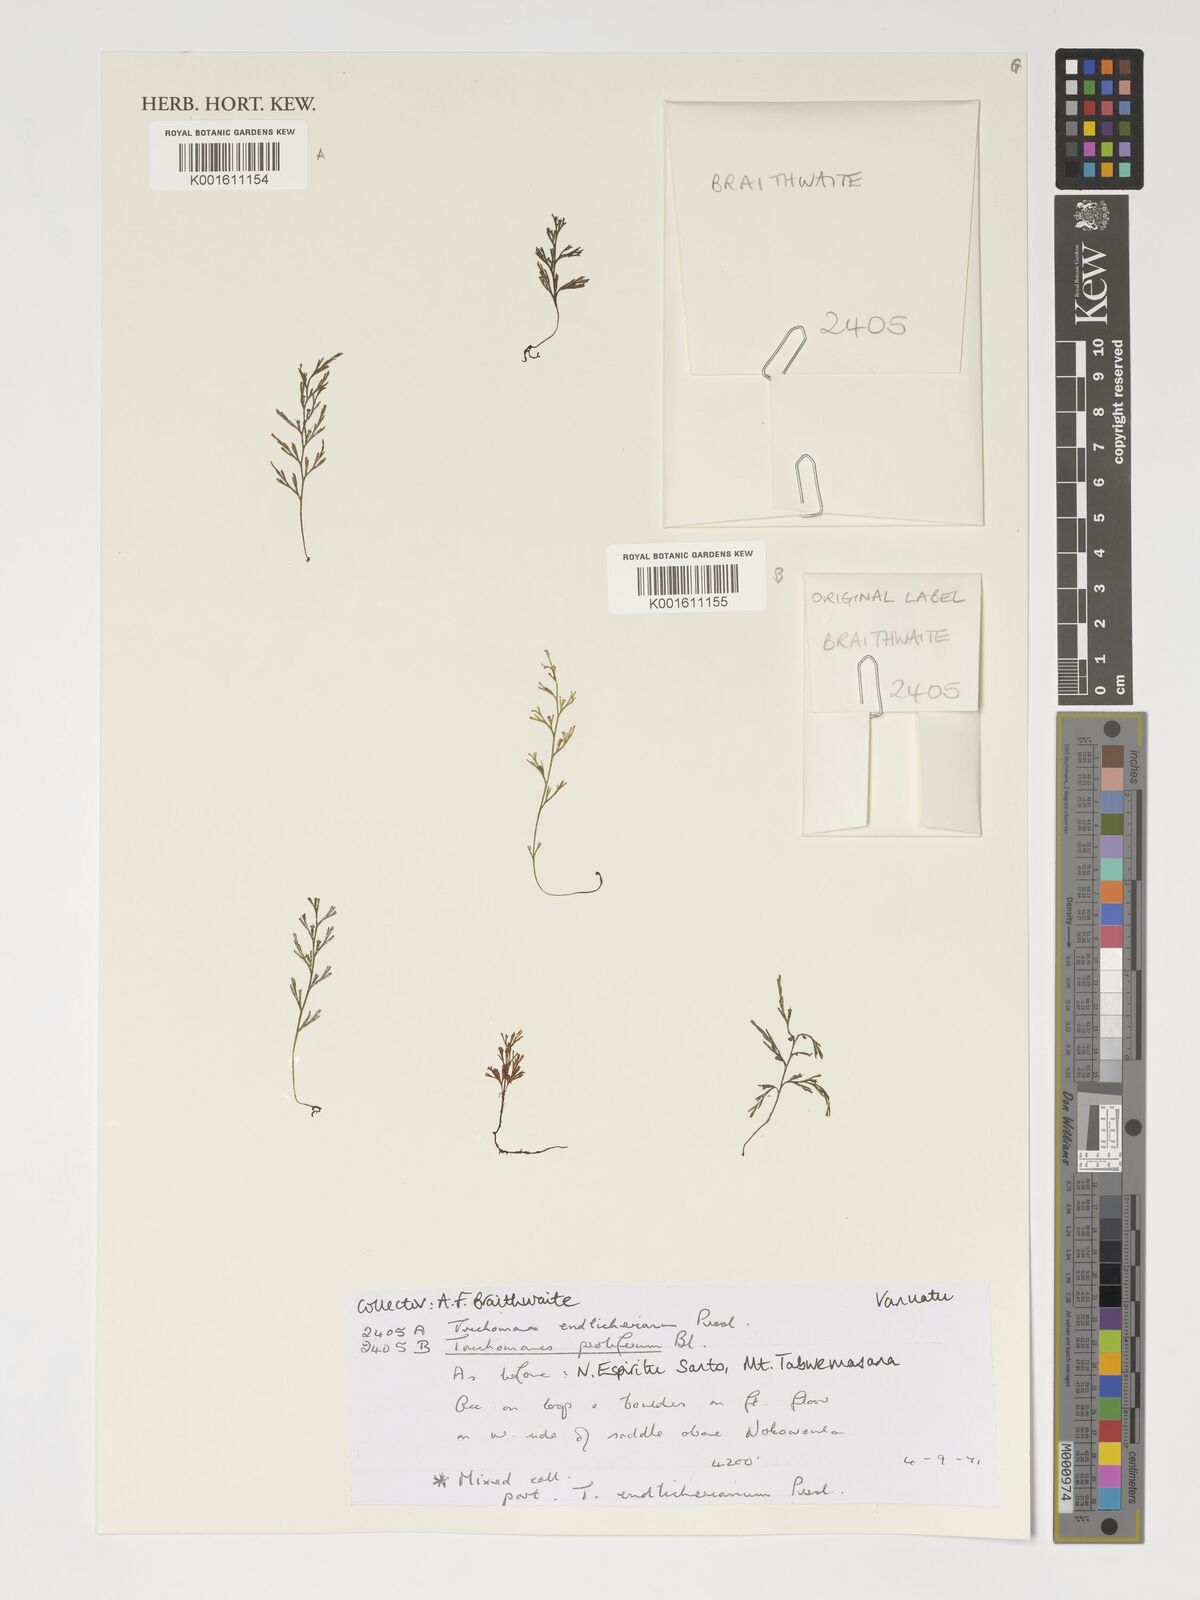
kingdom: Plantae
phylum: Tracheophyta
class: Polypodiopsida
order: Hymenophyllales
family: Hymenophyllaceae
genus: Polyphlebium
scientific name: Polyphlebium endlicherianum
